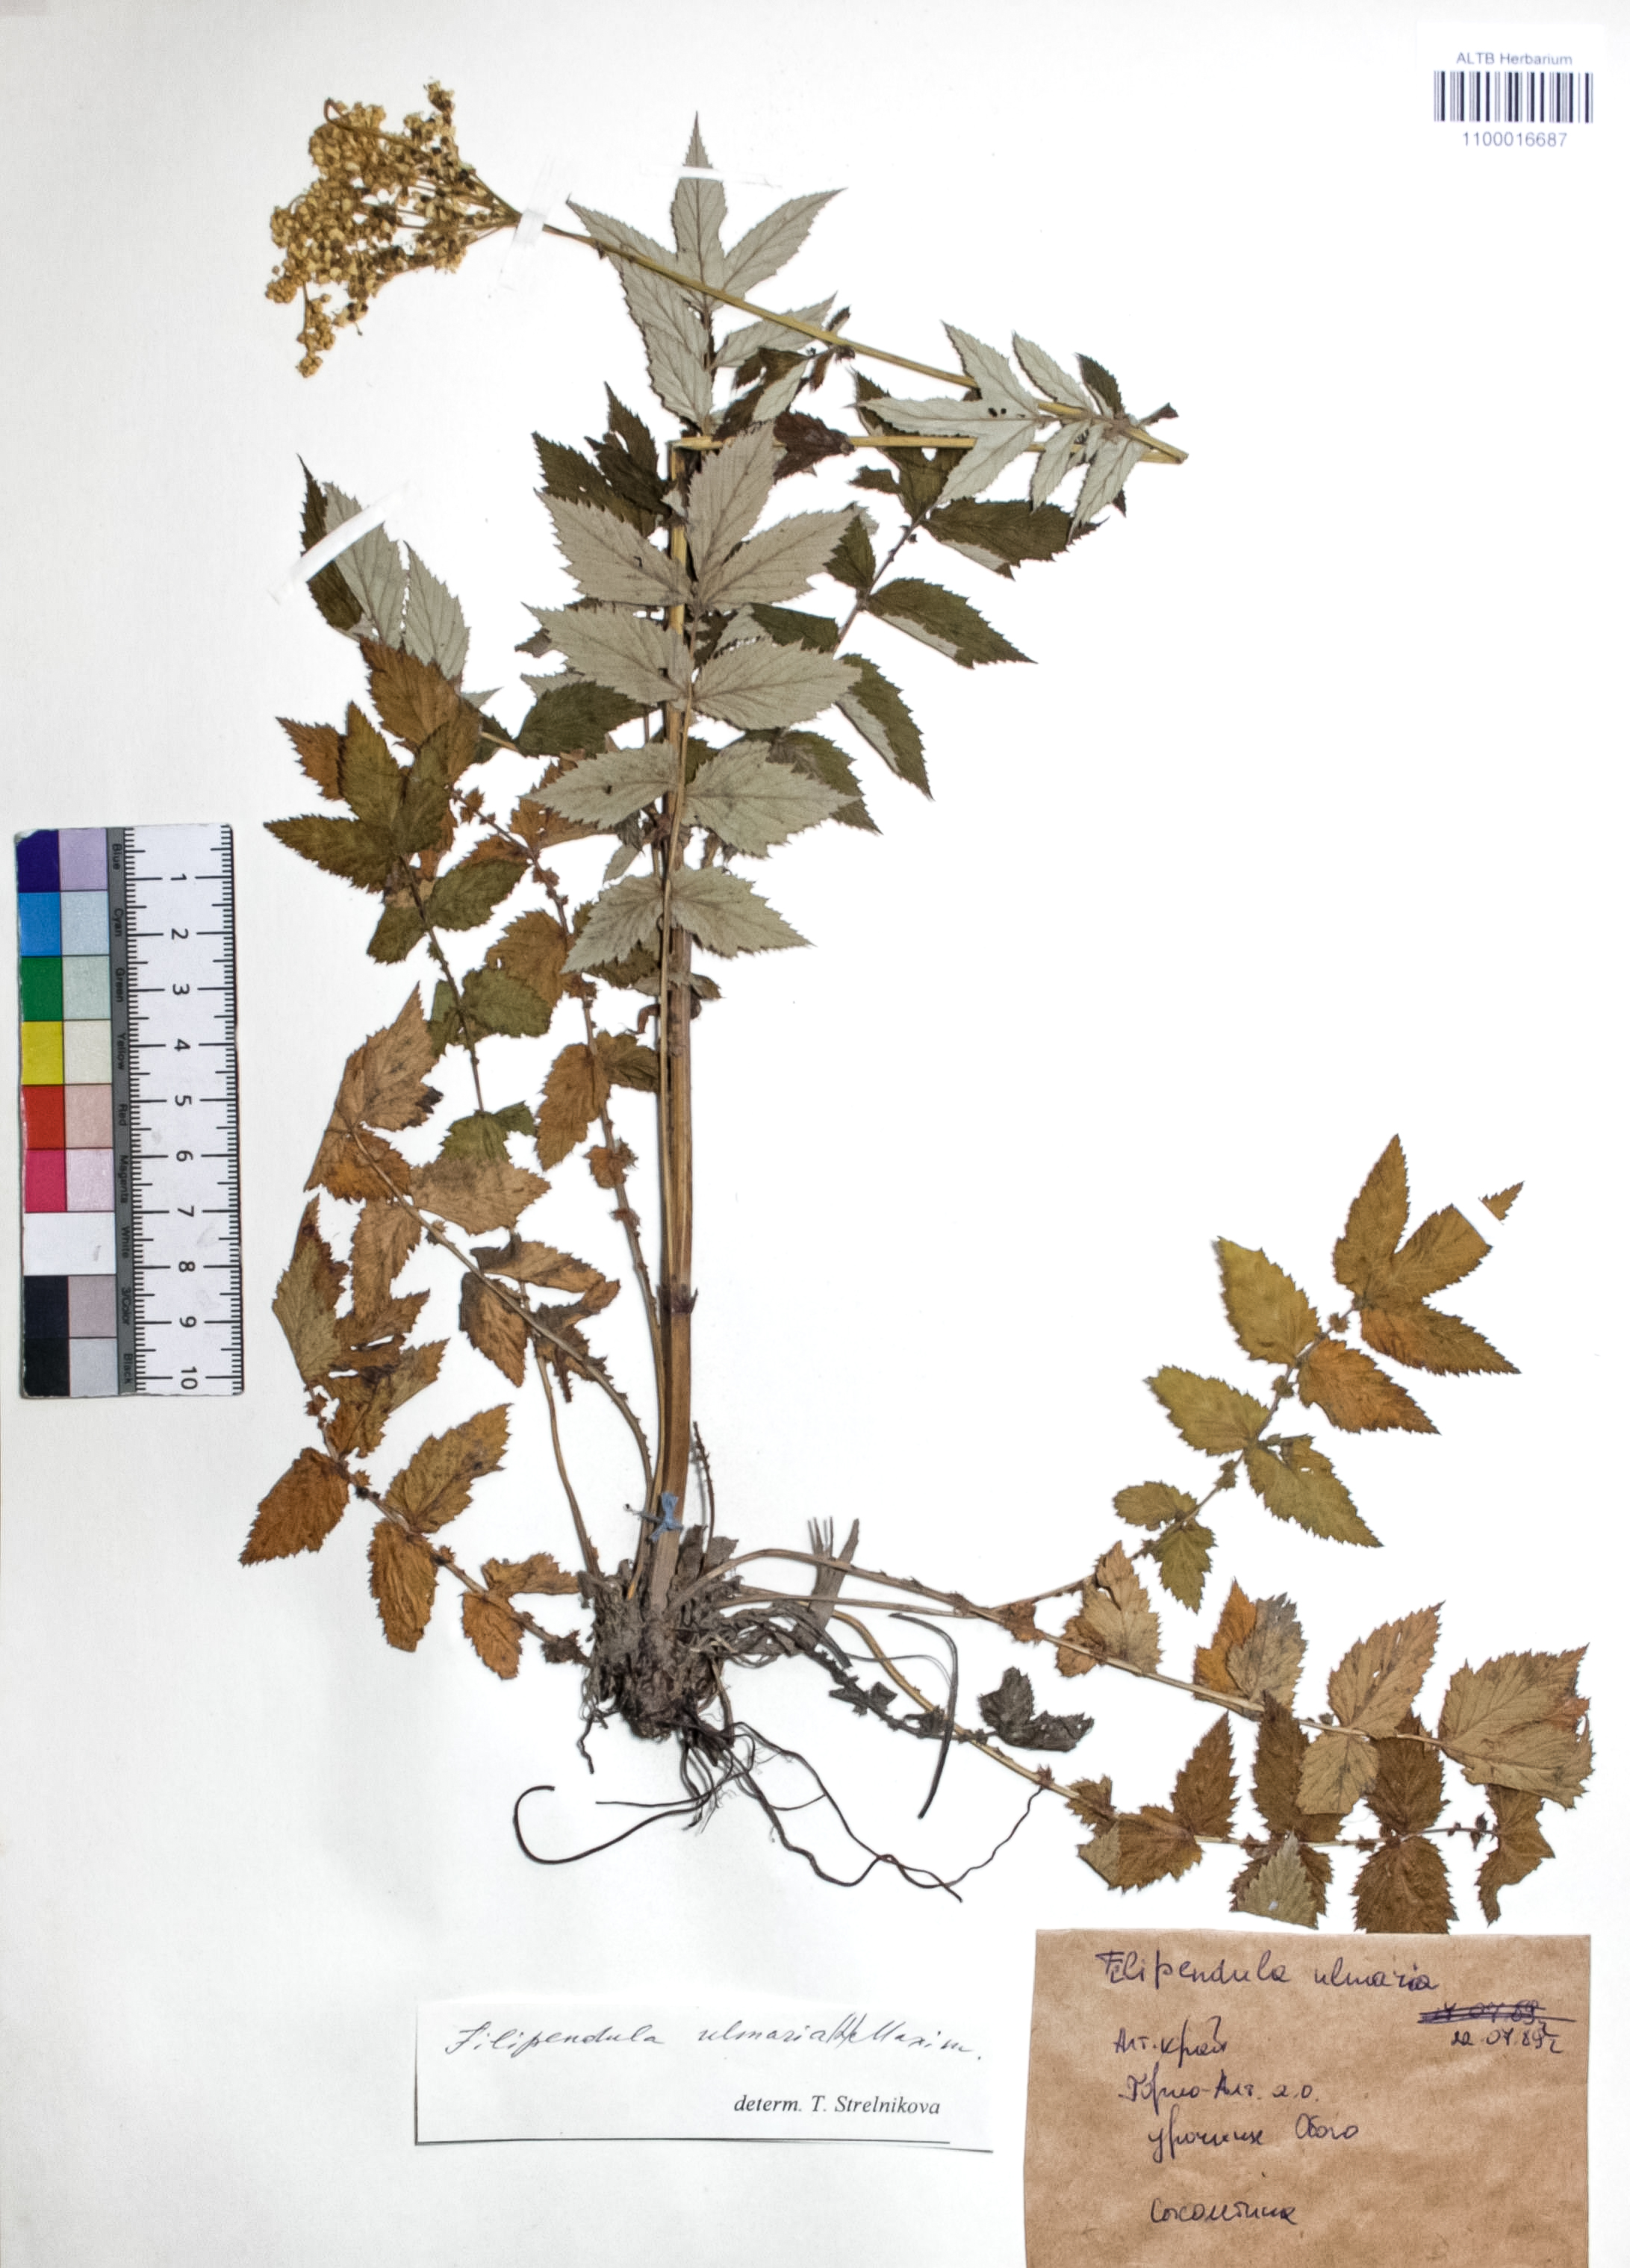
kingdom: Plantae
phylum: Tracheophyta
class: Magnoliopsida
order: Rosales
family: Rosaceae
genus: Filipendula
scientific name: Filipendula ulmaria
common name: Meadowsweet
